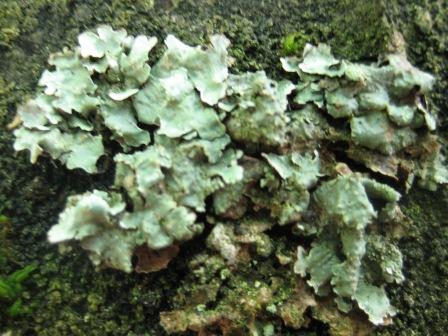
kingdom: Fungi
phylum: Ascomycota
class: Lecanoromycetes
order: Lecanorales
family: Parmeliaceae
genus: Parmelia
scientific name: Parmelia sulcata
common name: rynket skållav
